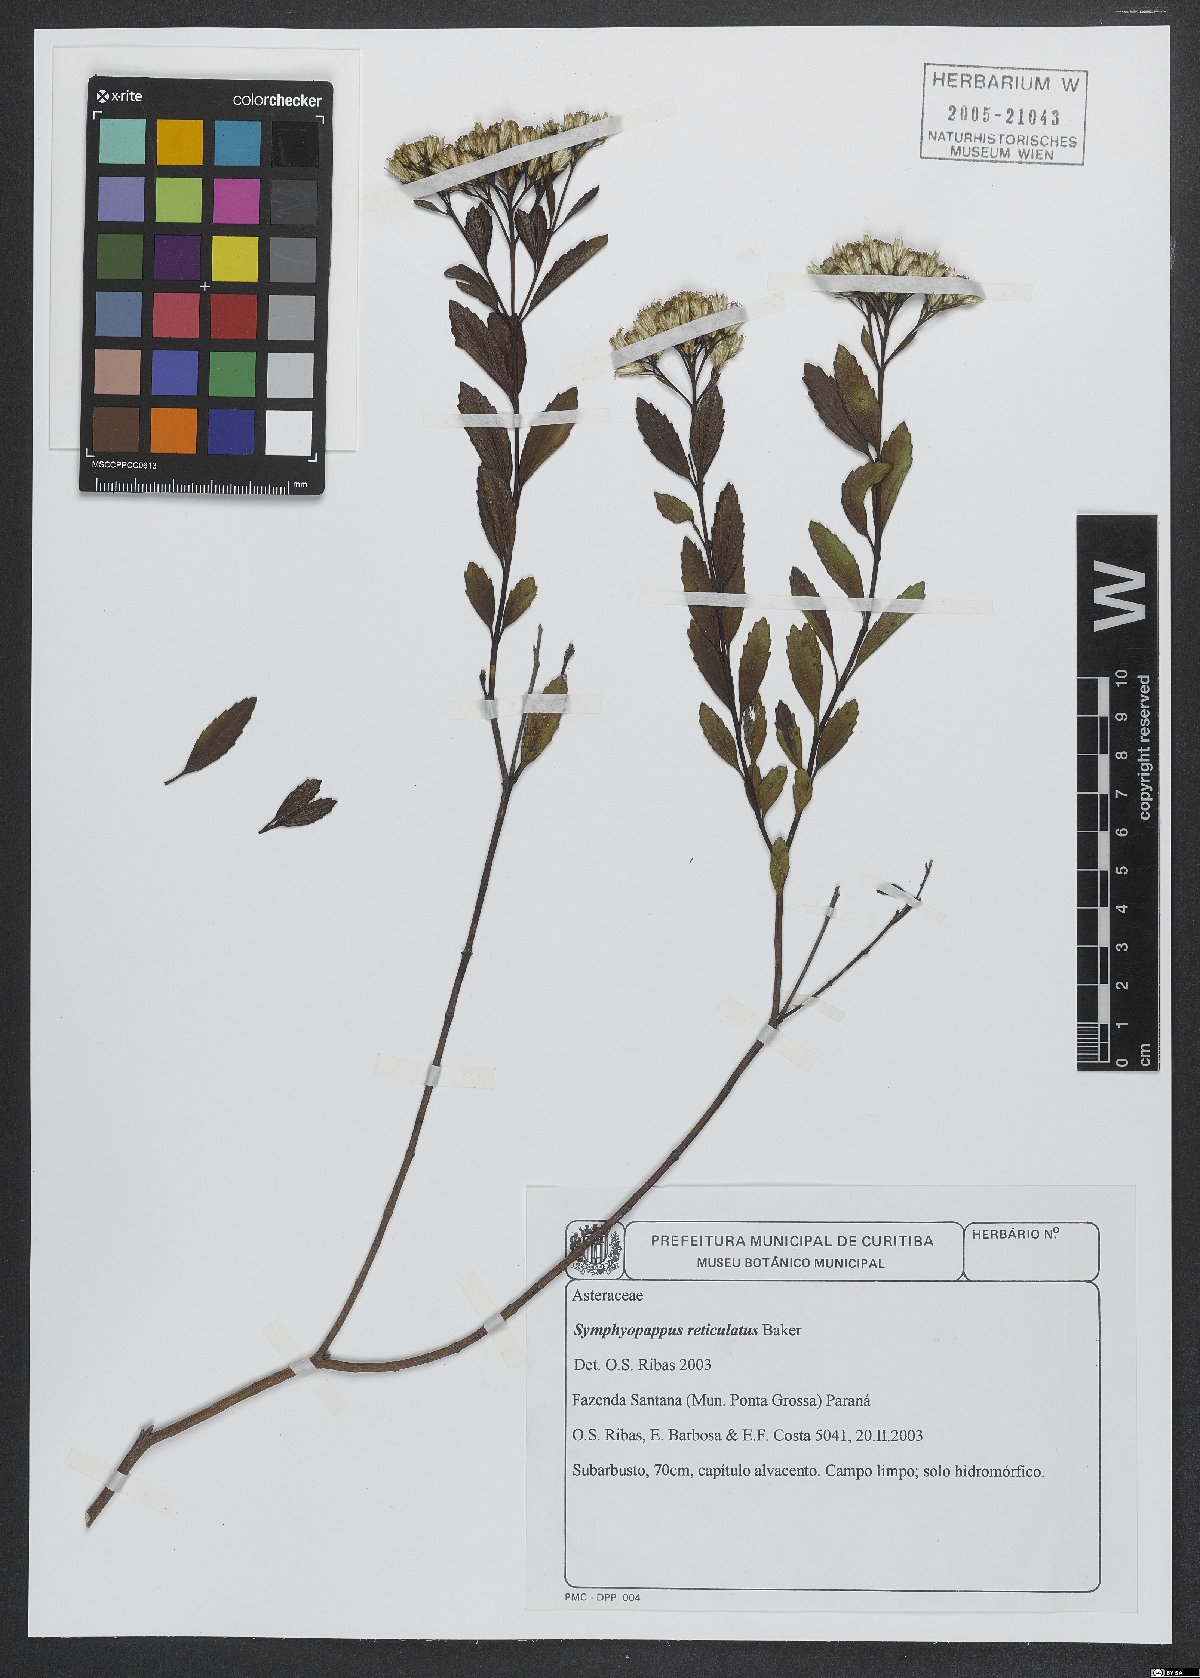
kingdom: Plantae
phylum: Tracheophyta
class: Magnoliopsida
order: Asterales
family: Asteraceae
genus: Symphyopappus
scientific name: Symphyopappus reticulatus
